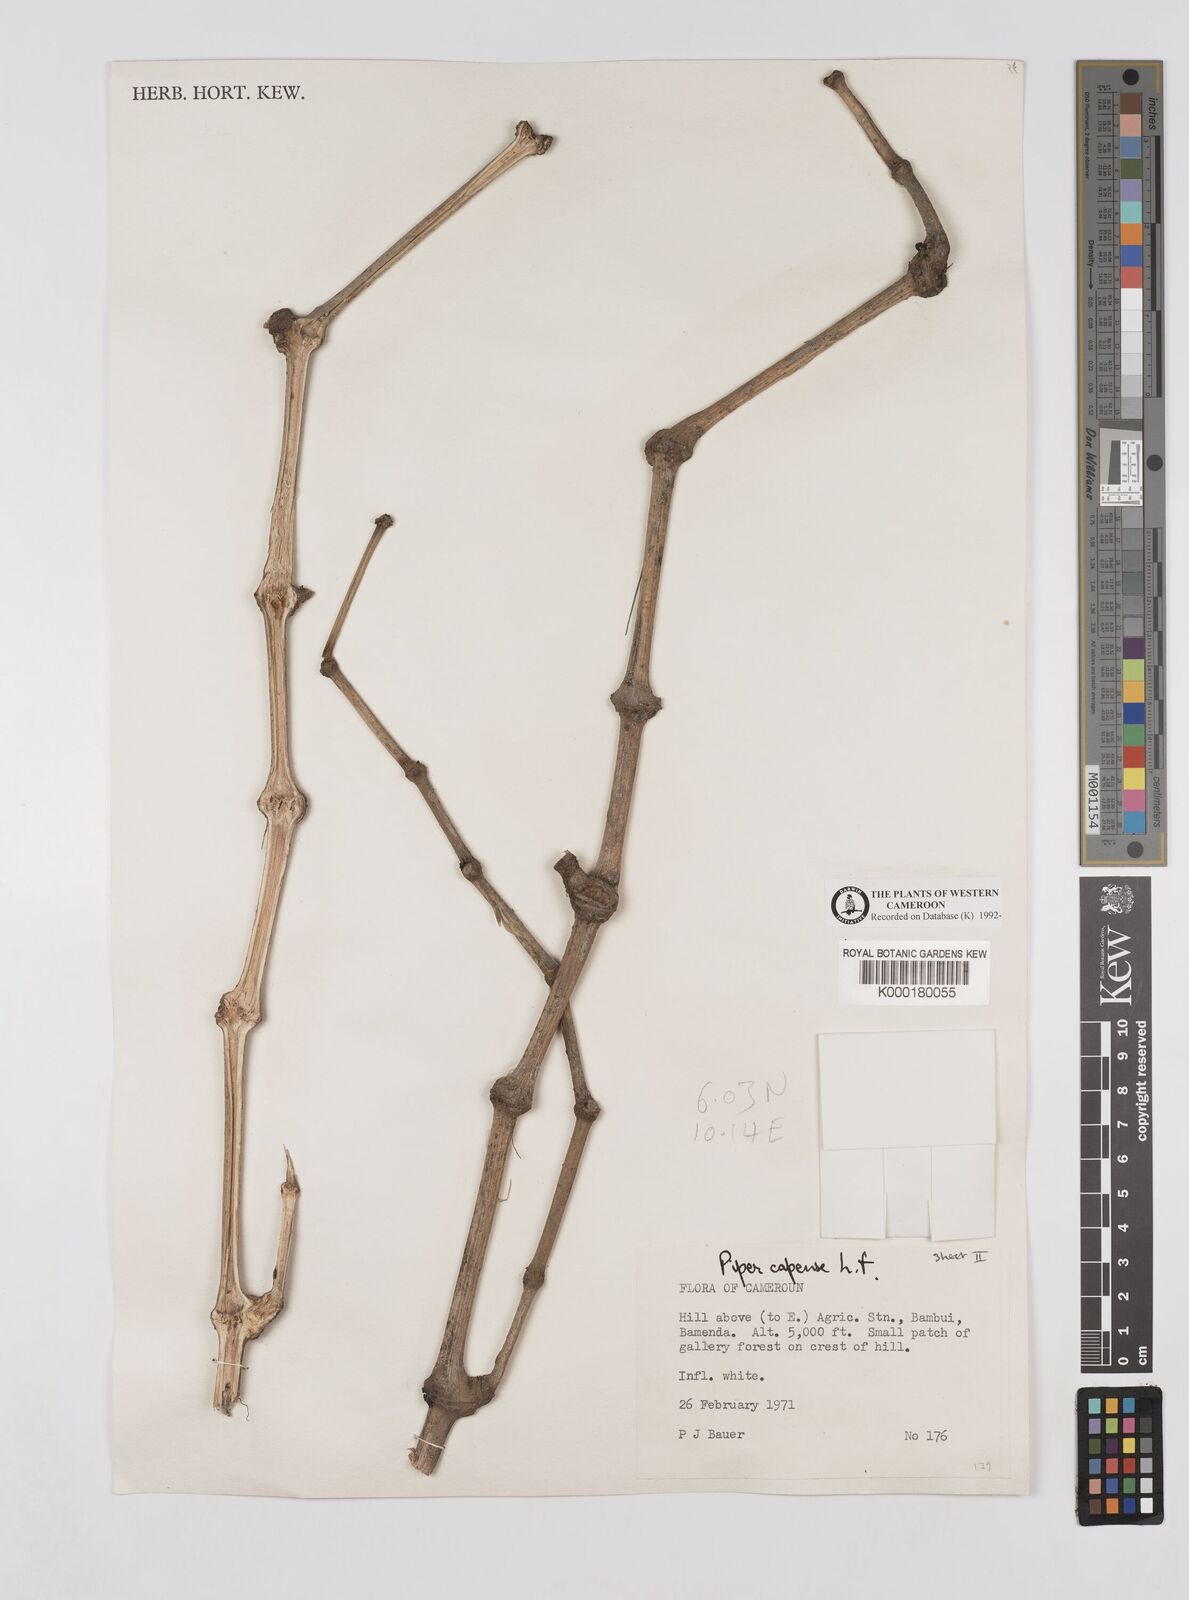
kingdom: Plantae
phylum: Tracheophyta
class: Magnoliopsida
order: Piperales
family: Piperaceae
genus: Piper
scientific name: Piper capense
